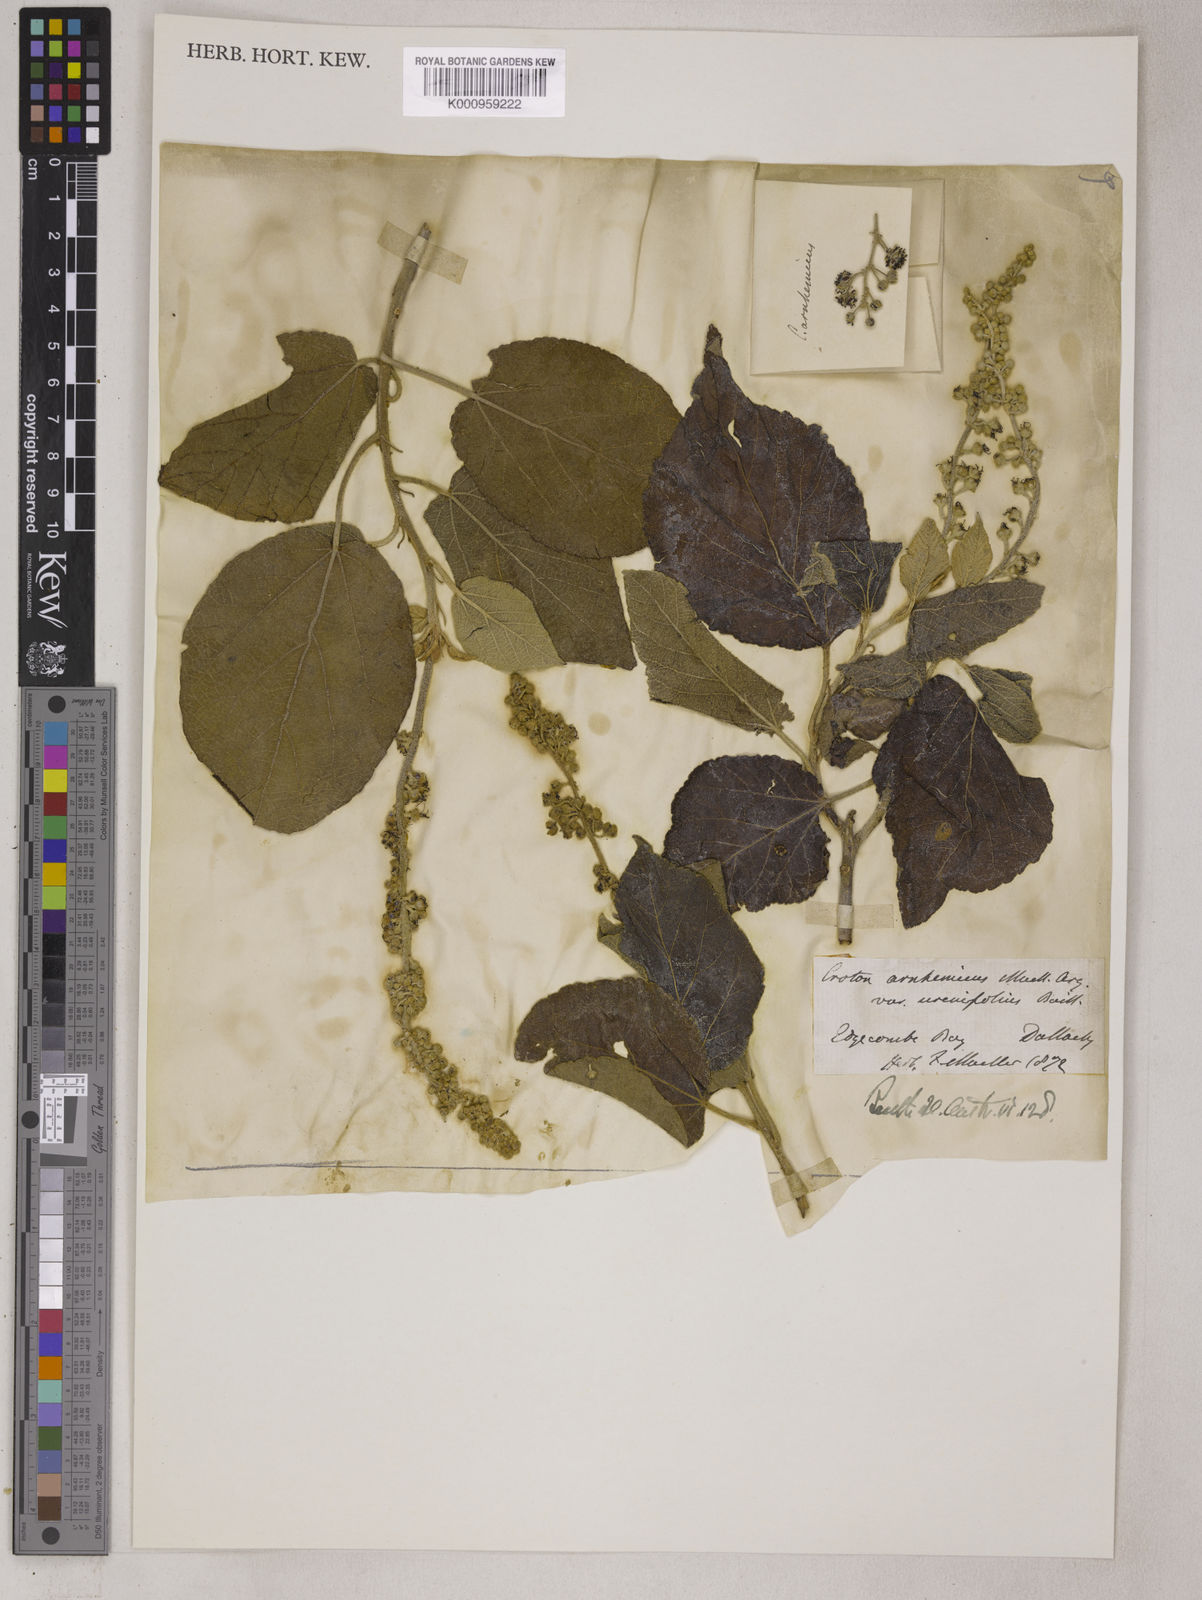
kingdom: Plantae
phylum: Tracheophyta
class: Magnoliopsida
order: Malpighiales
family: Euphorbiaceae
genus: Croton
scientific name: Croton
